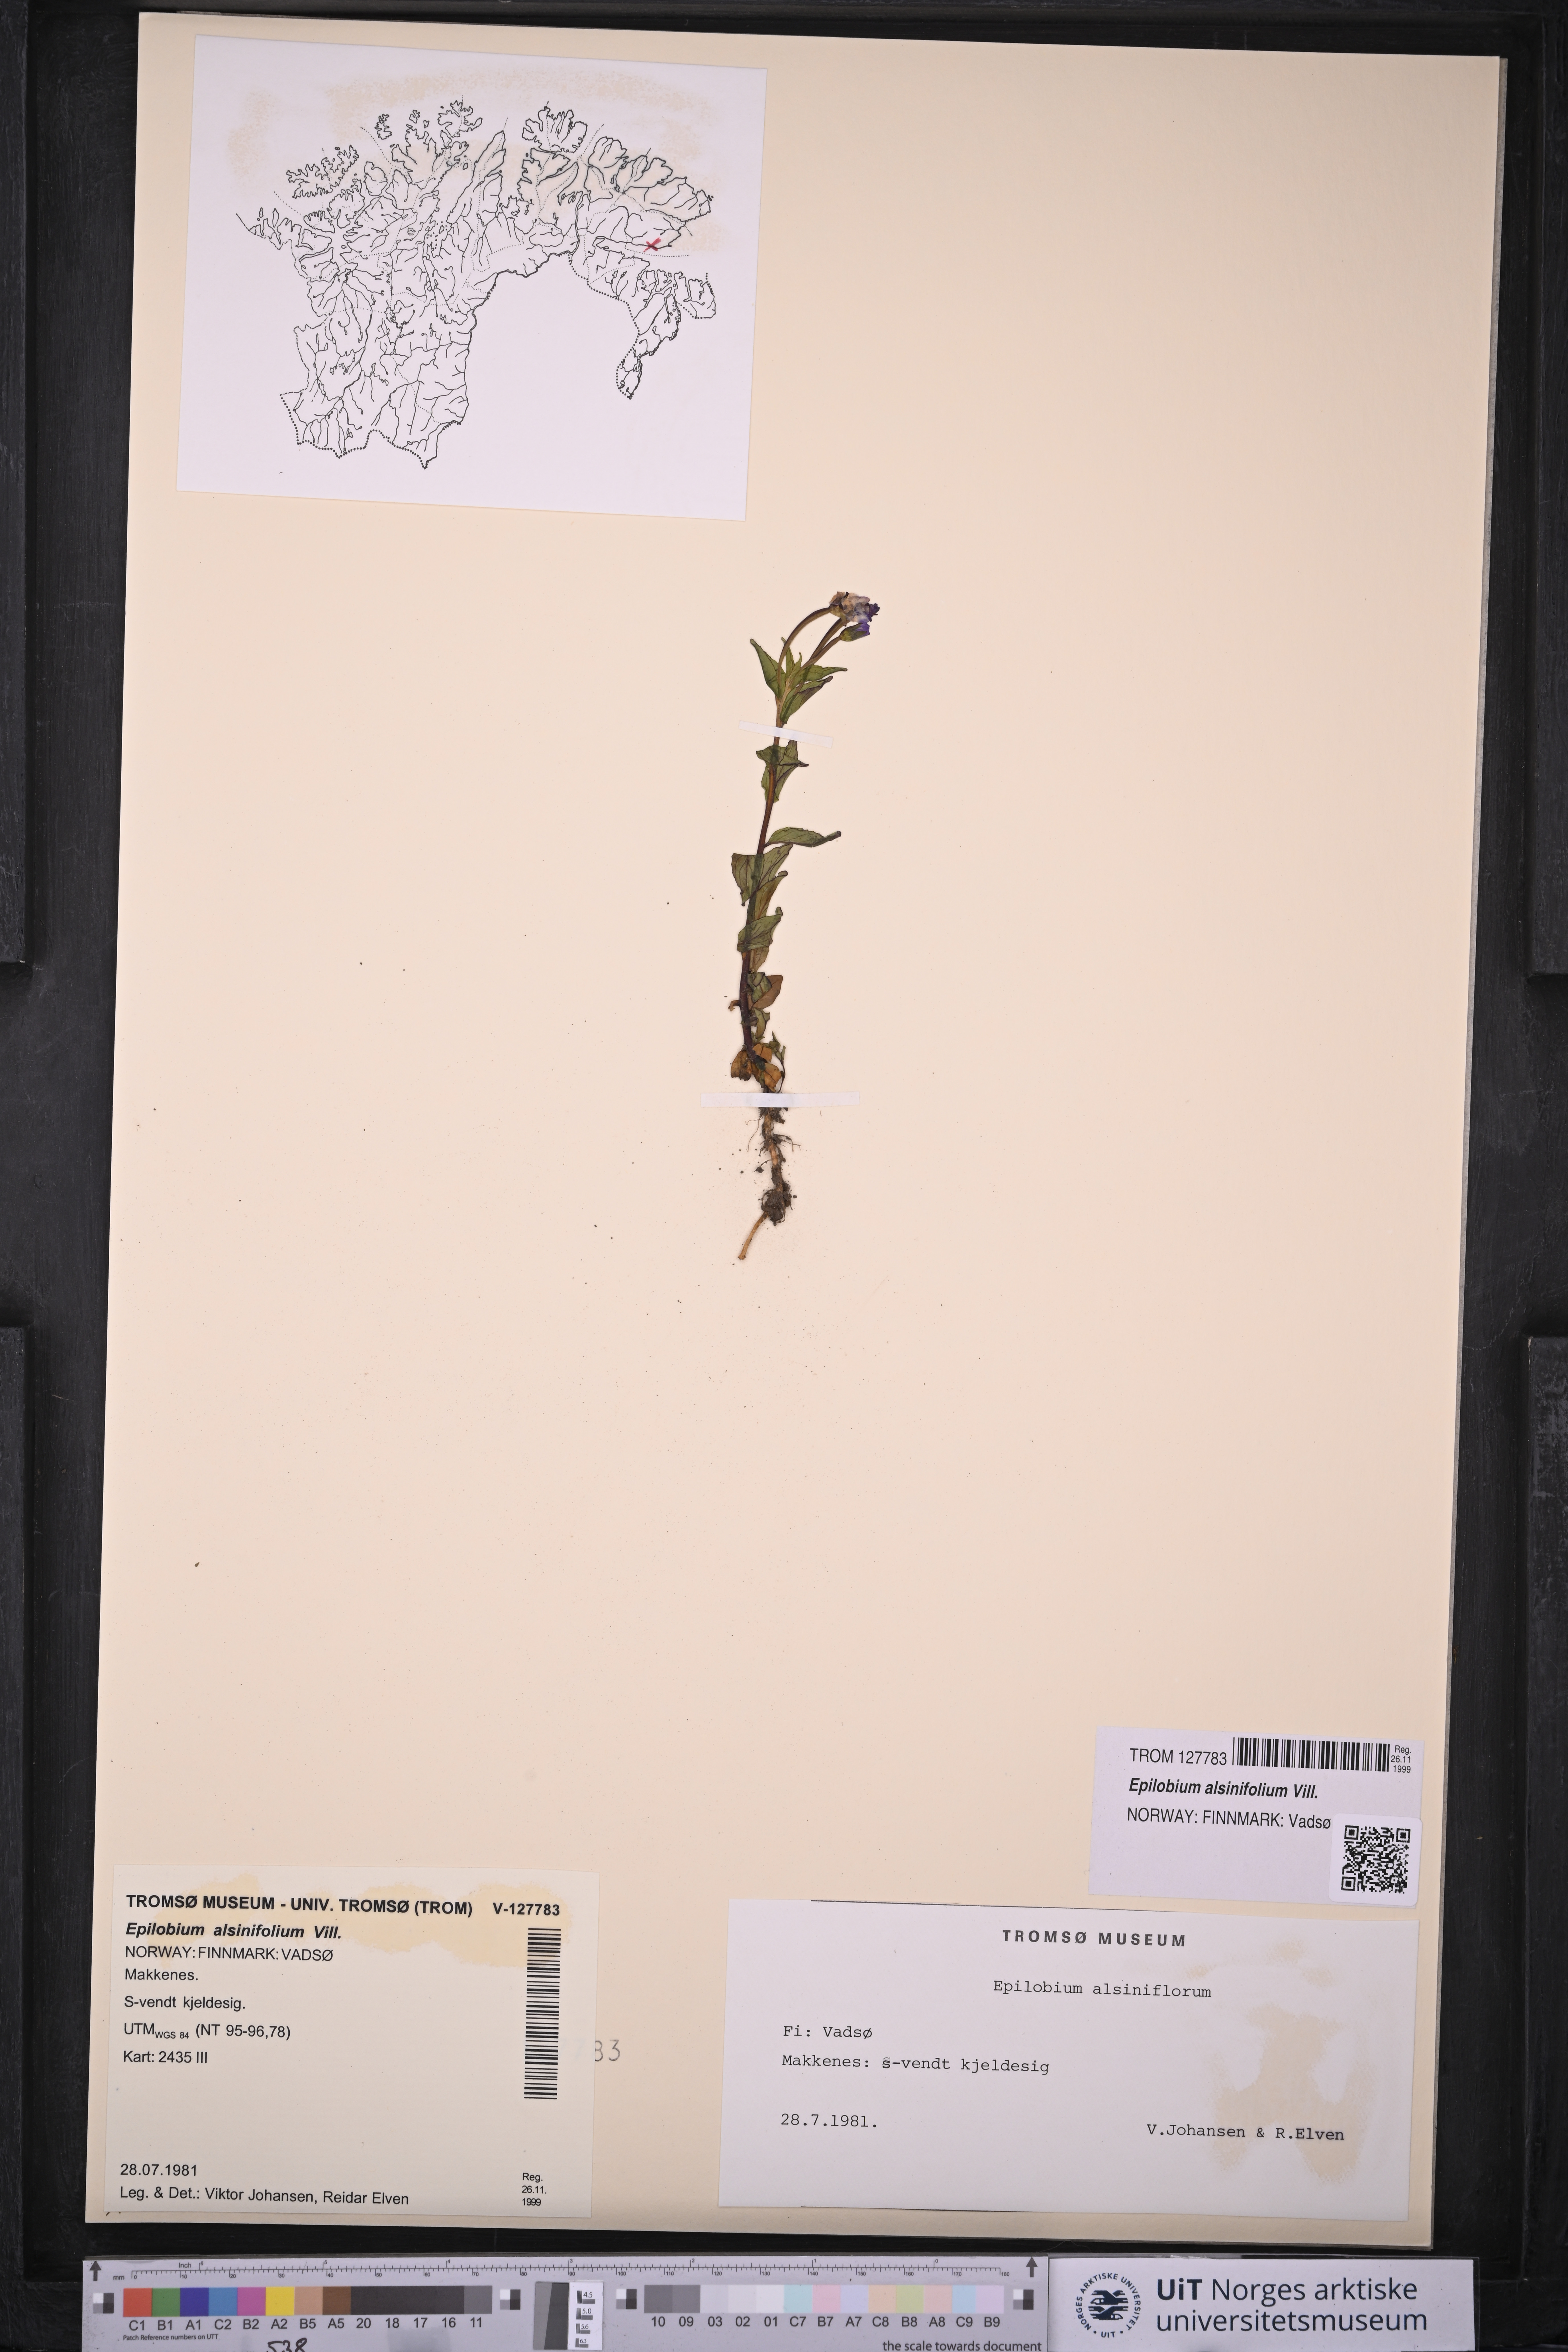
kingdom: Plantae
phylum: Tracheophyta
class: Magnoliopsida
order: Myrtales
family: Onagraceae
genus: Epilobium
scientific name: Epilobium alsinifolium
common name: Chickweed willowherb
